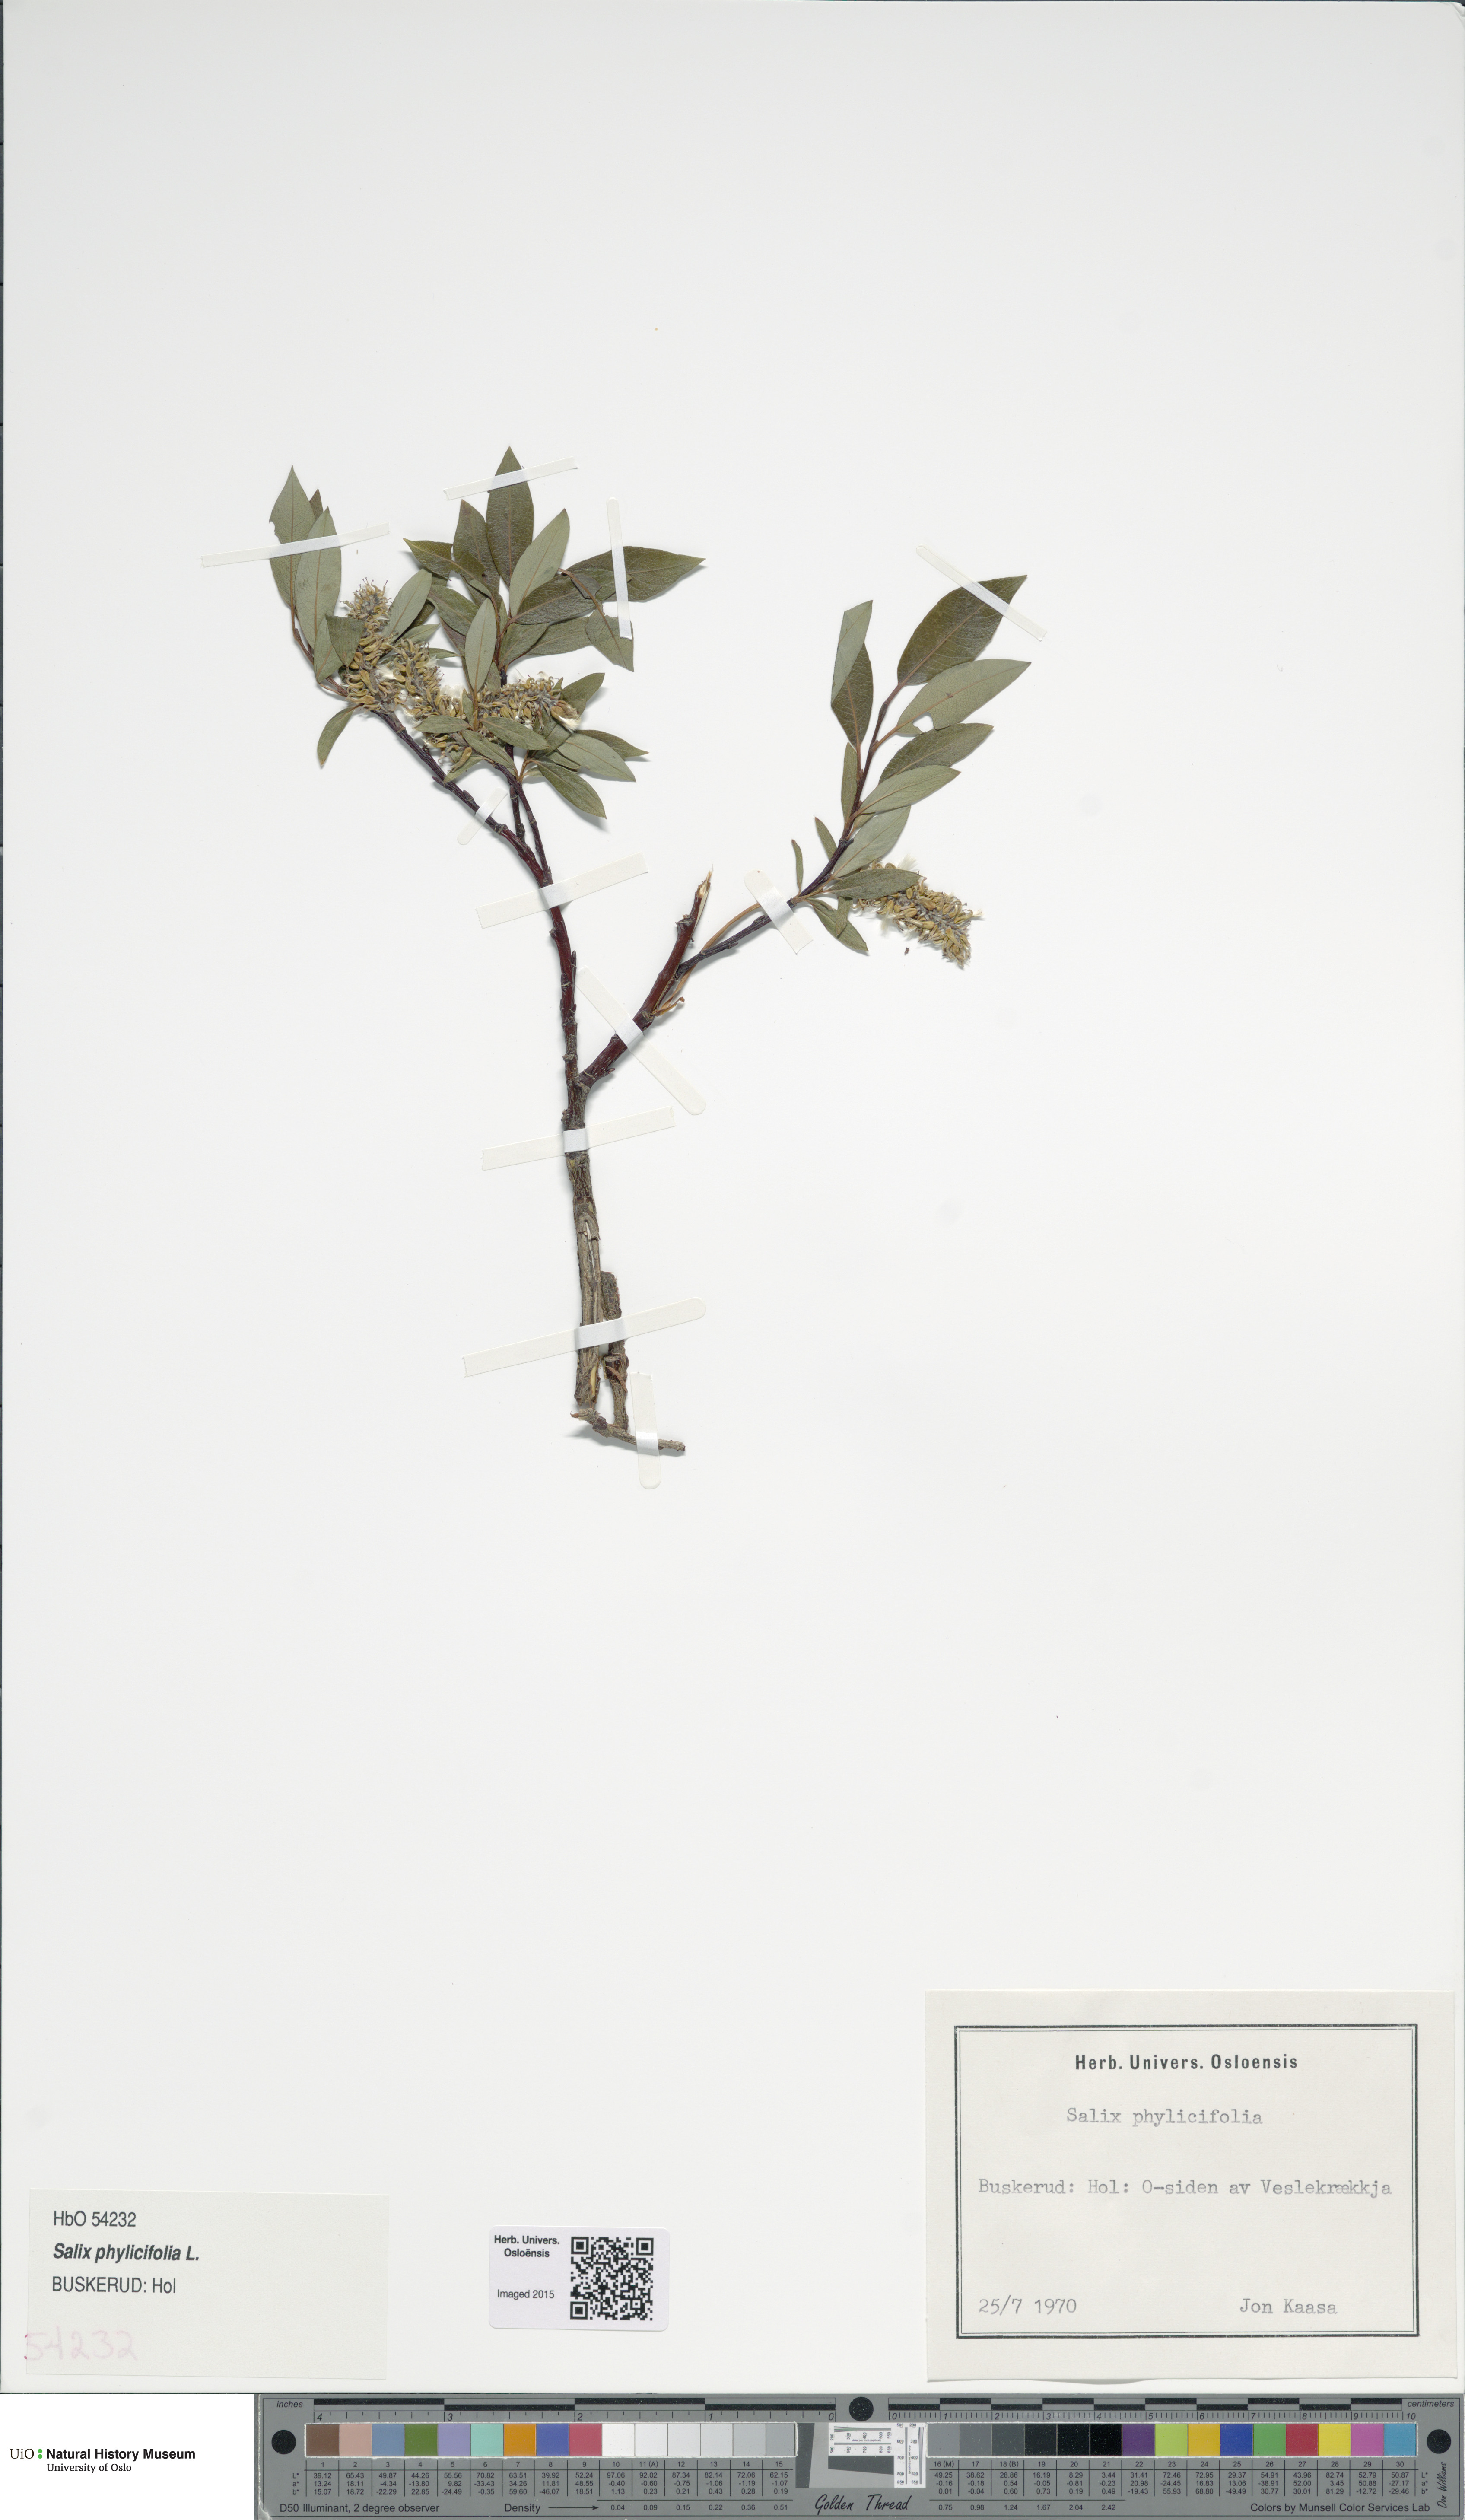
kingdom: Plantae
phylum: Tracheophyta
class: Magnoliopsida
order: Malpighiales
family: Salicaceae
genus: Salix
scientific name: Salix phylicifolia
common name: Tea-leaved willow
